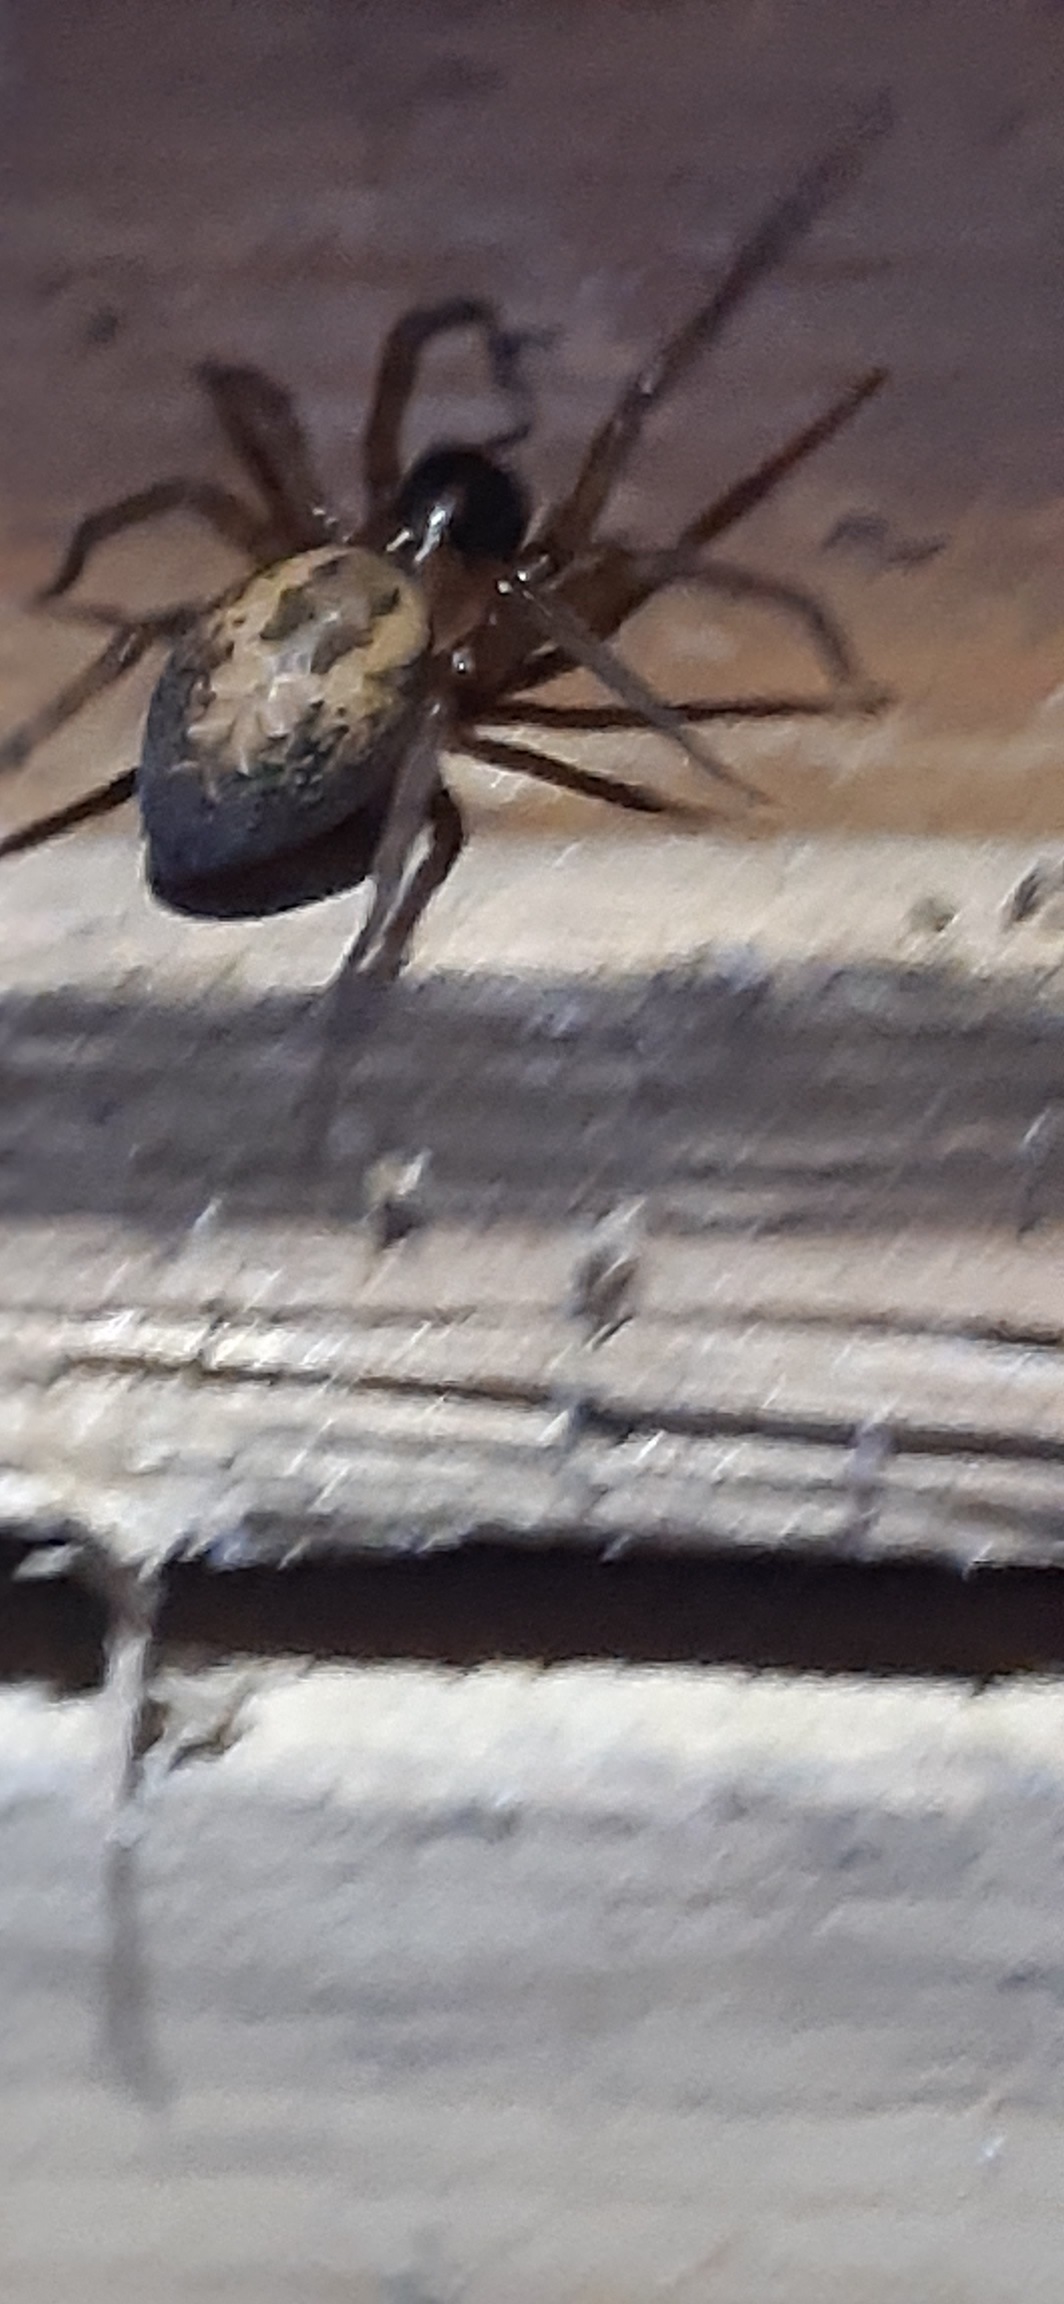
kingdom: Animalia
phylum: Arthropoda
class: Arachnida
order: Araneae
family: Amaurobiidae
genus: Amaurobius
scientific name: Amaurobius similis
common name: Huskartespinder
